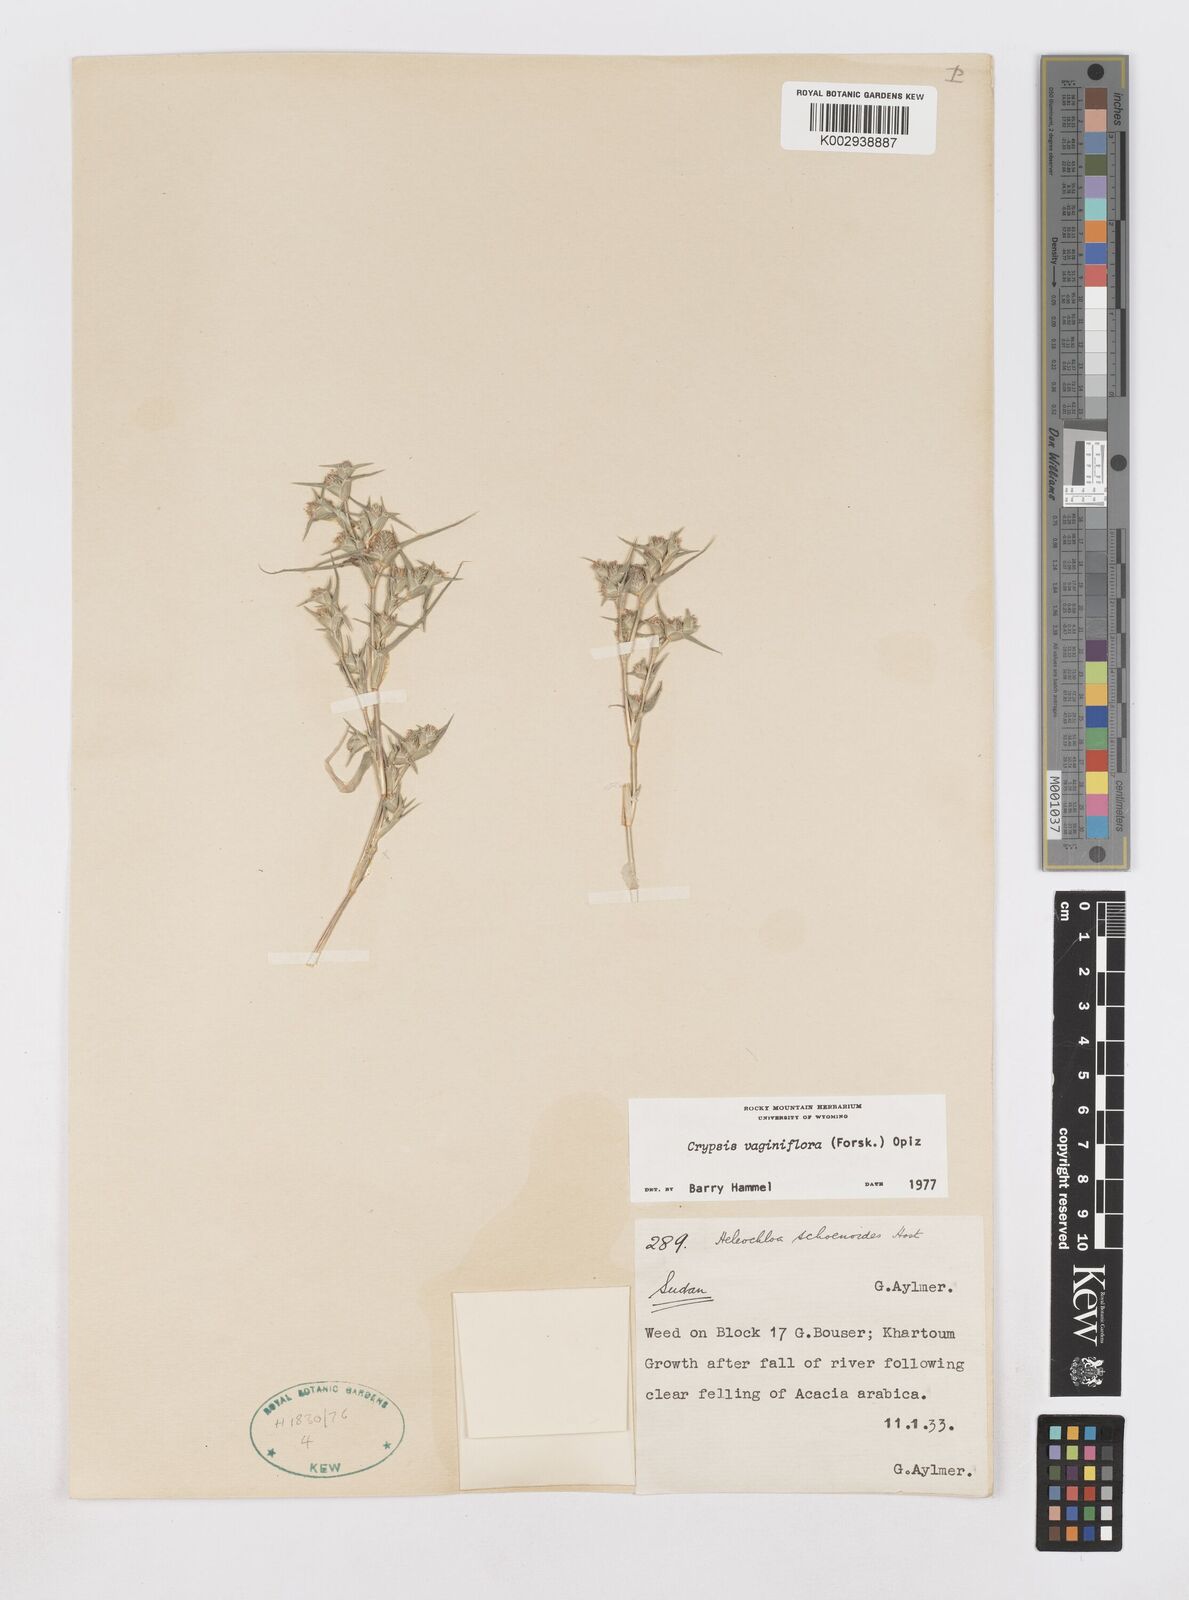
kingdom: Plantae
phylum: Tracheophyta
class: Liliopsida
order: Poales
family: Poaceae
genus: Sporobolus
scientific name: Sporobolus niliacus
